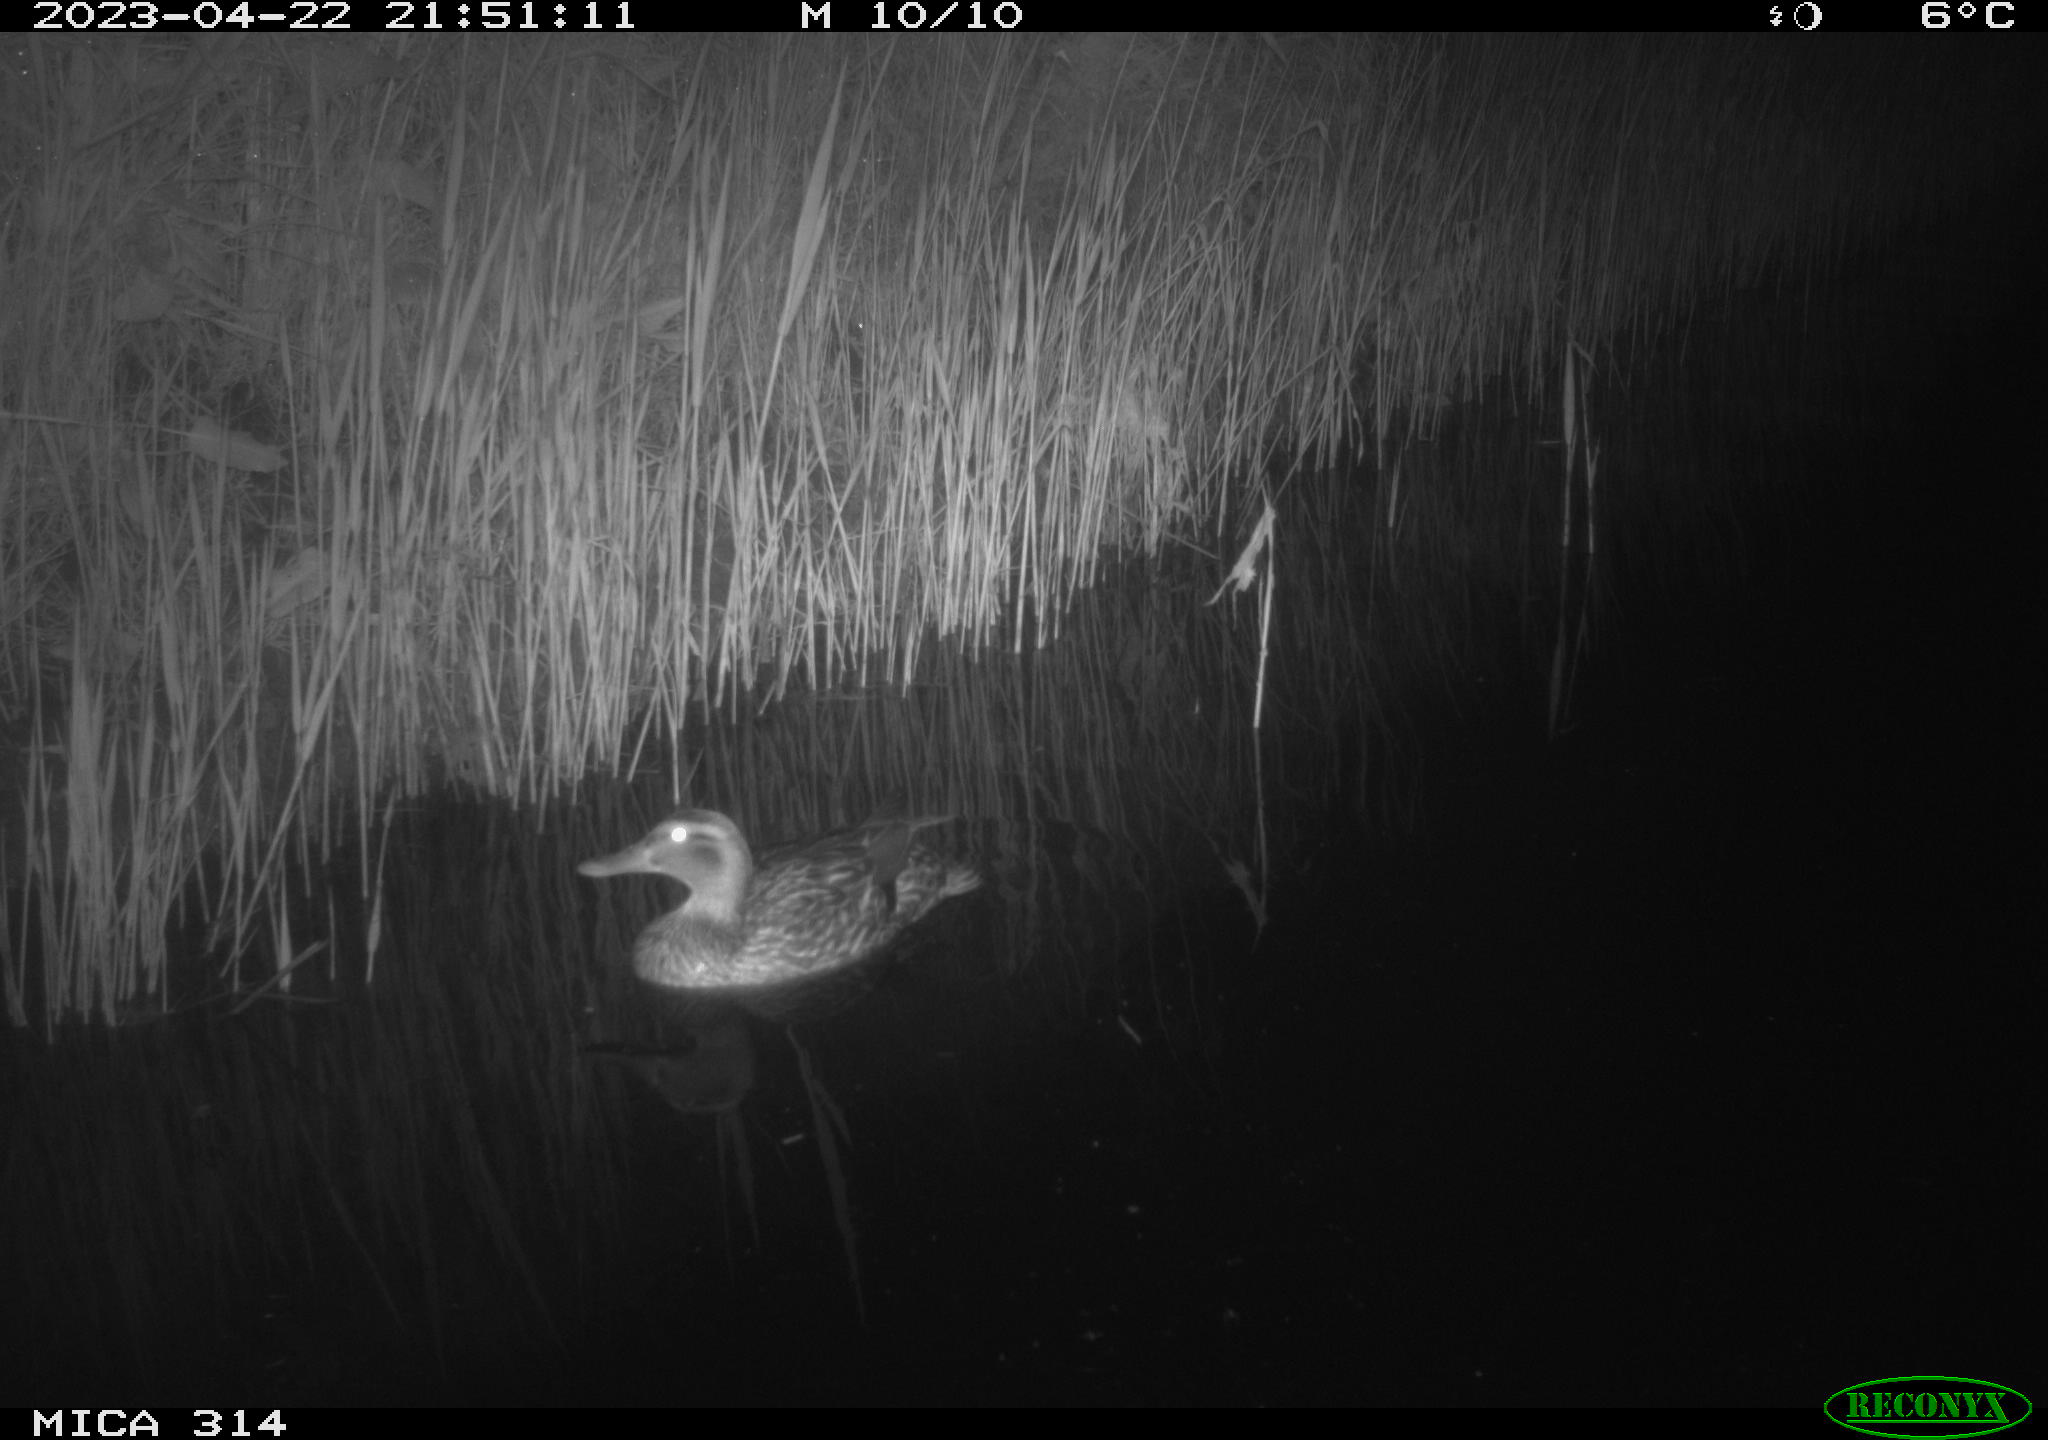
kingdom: Animalia
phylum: Chordata
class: Aves
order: Anseriformes
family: Anatidae
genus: Anas
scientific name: Anas
